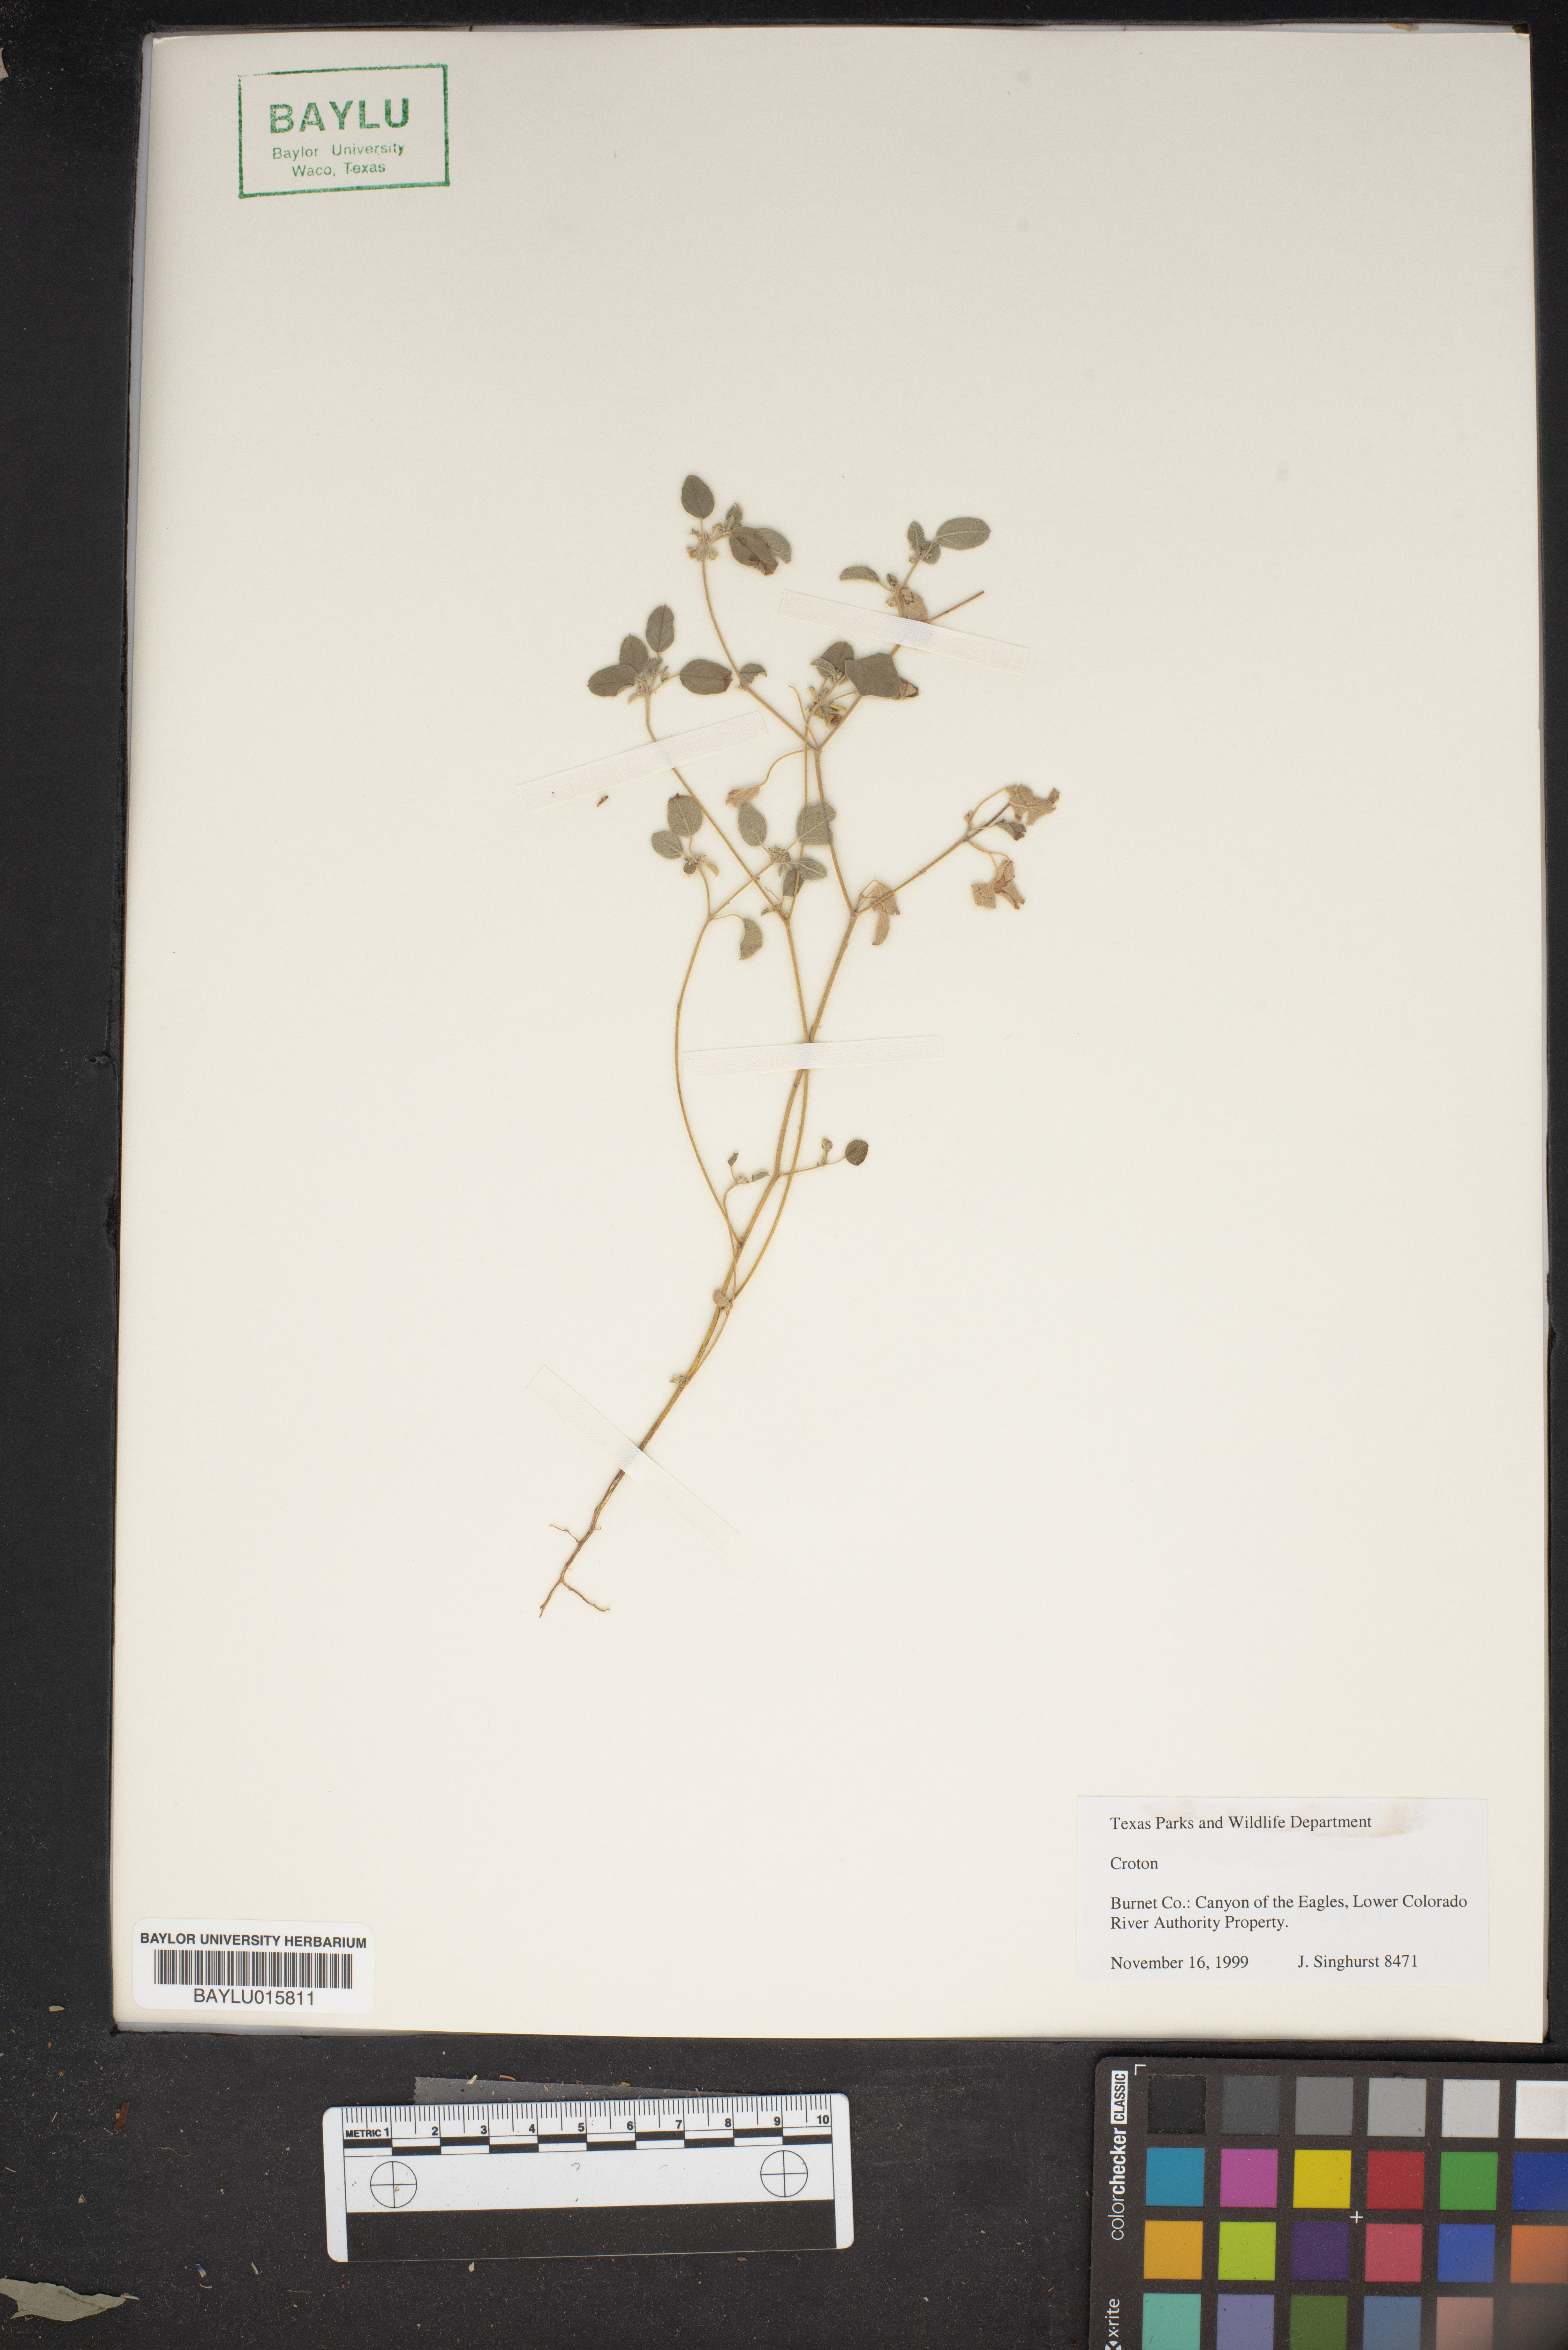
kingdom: Plantae
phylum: Tracheophyta
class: Magnoliopsida
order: Malpighiales
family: Euphorbiaceae
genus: Croton
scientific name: Croton
